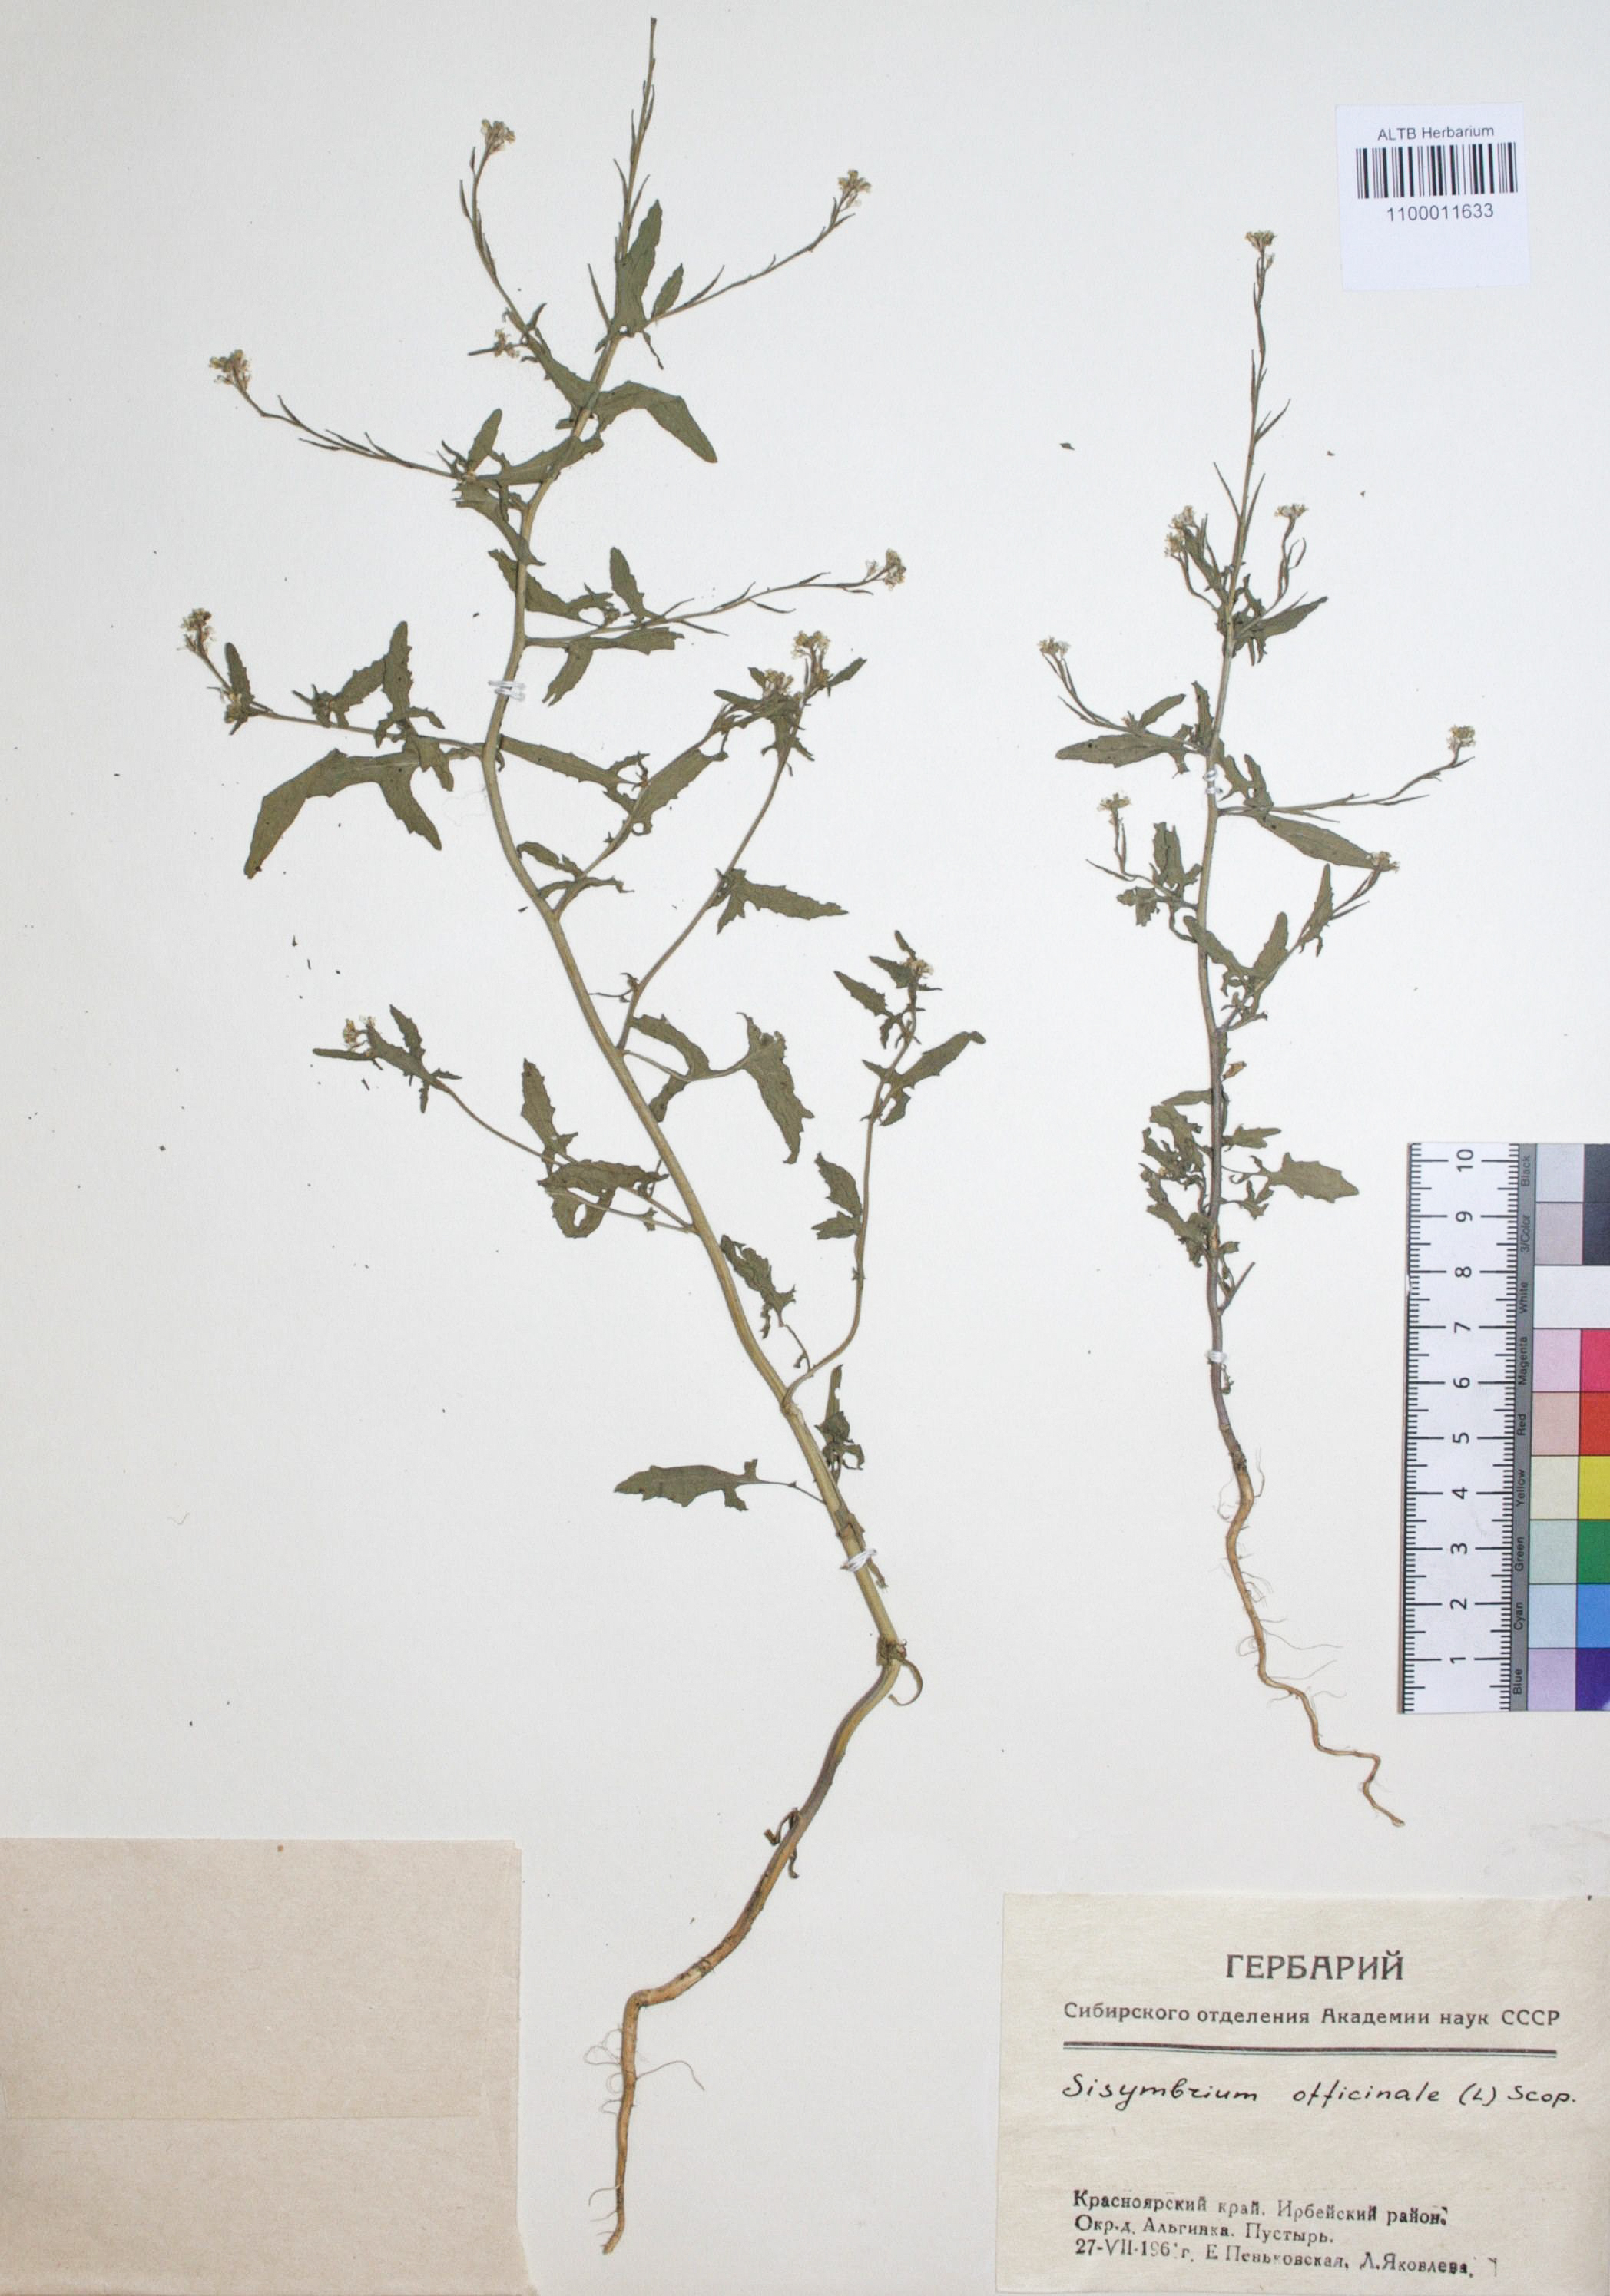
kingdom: Plantae
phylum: Tracheophyta
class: Magnoliopsida
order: Brassicales
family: Brassicaceae
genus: Sisymbrium
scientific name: Sisymbrium officinale
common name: Hedge mustard
